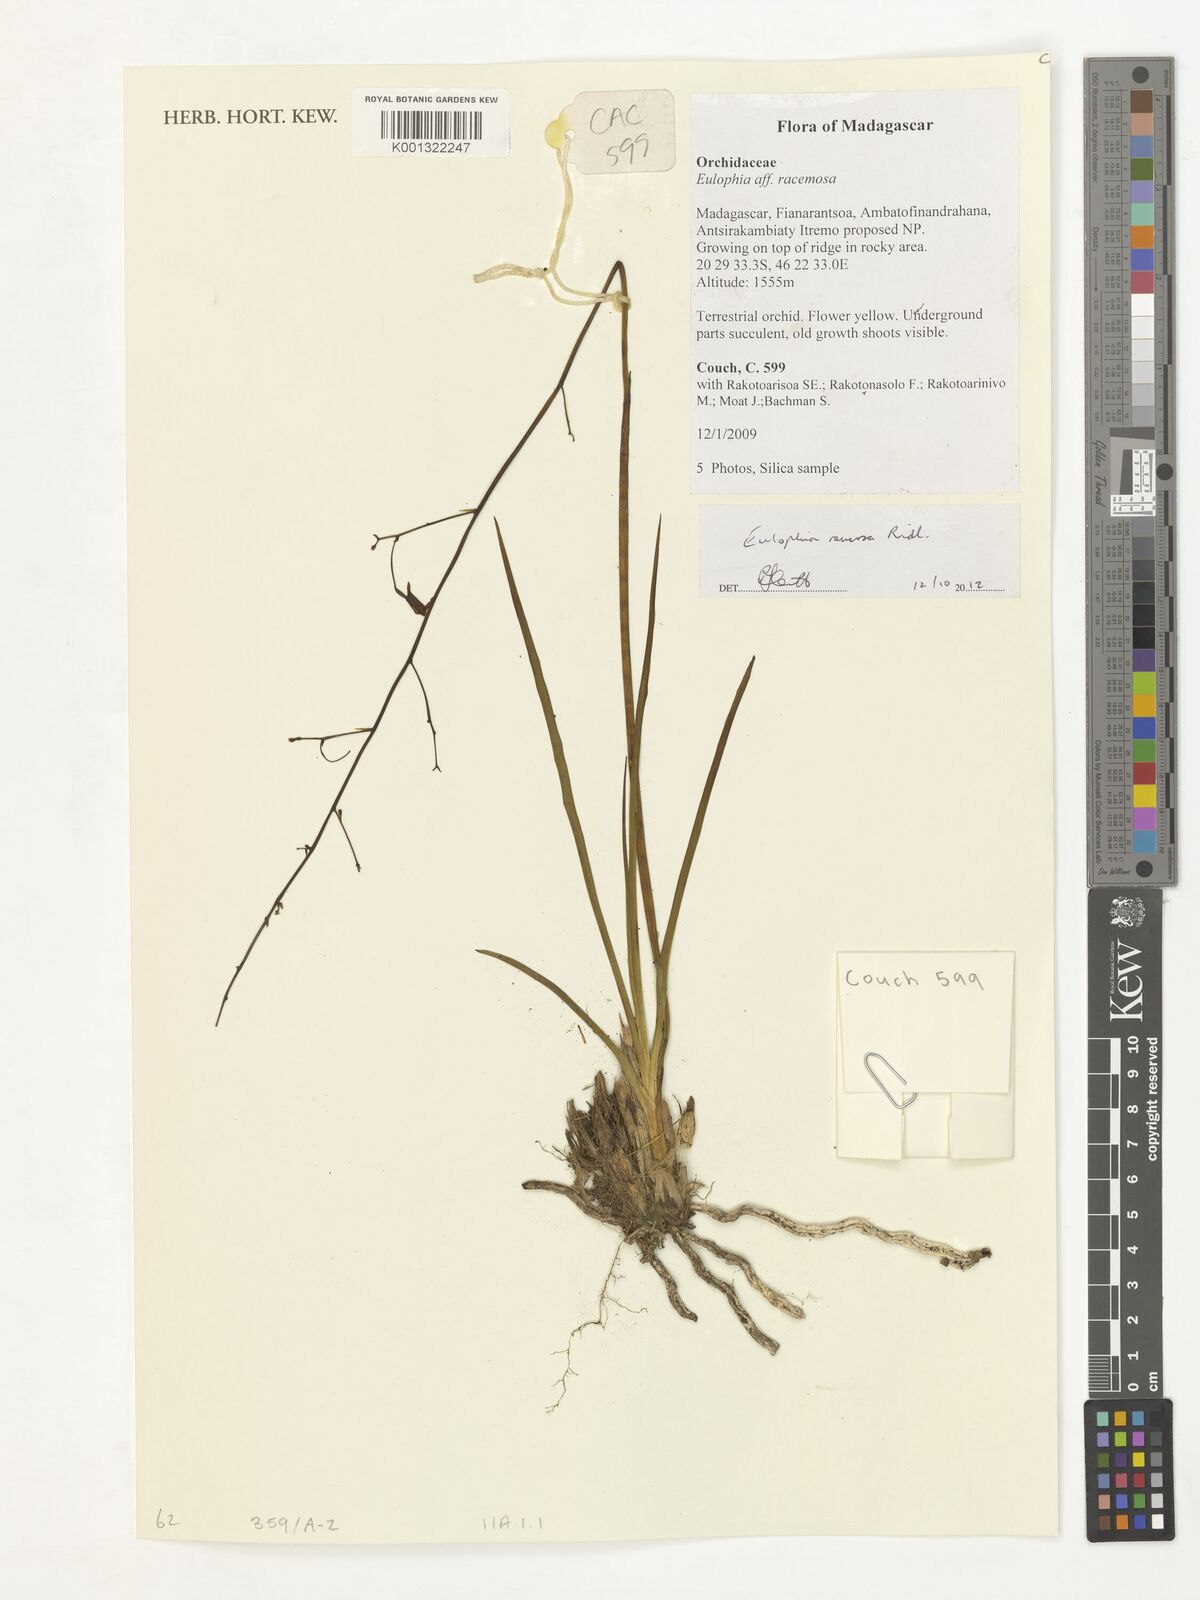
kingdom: Plantae
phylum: Tracheophyta
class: Liliopsida
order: Asparagales
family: Orchidaceae
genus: Eulophia
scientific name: Eulophia
